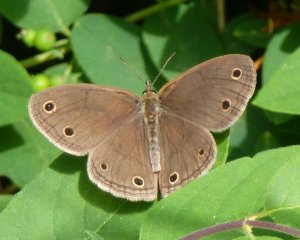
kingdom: Animalia
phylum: Arthropoda
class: Insecta
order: Lepidoptera
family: Nymphalidae
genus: Euptychia
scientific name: Euptychia cymela
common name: Little Wood Satyr
